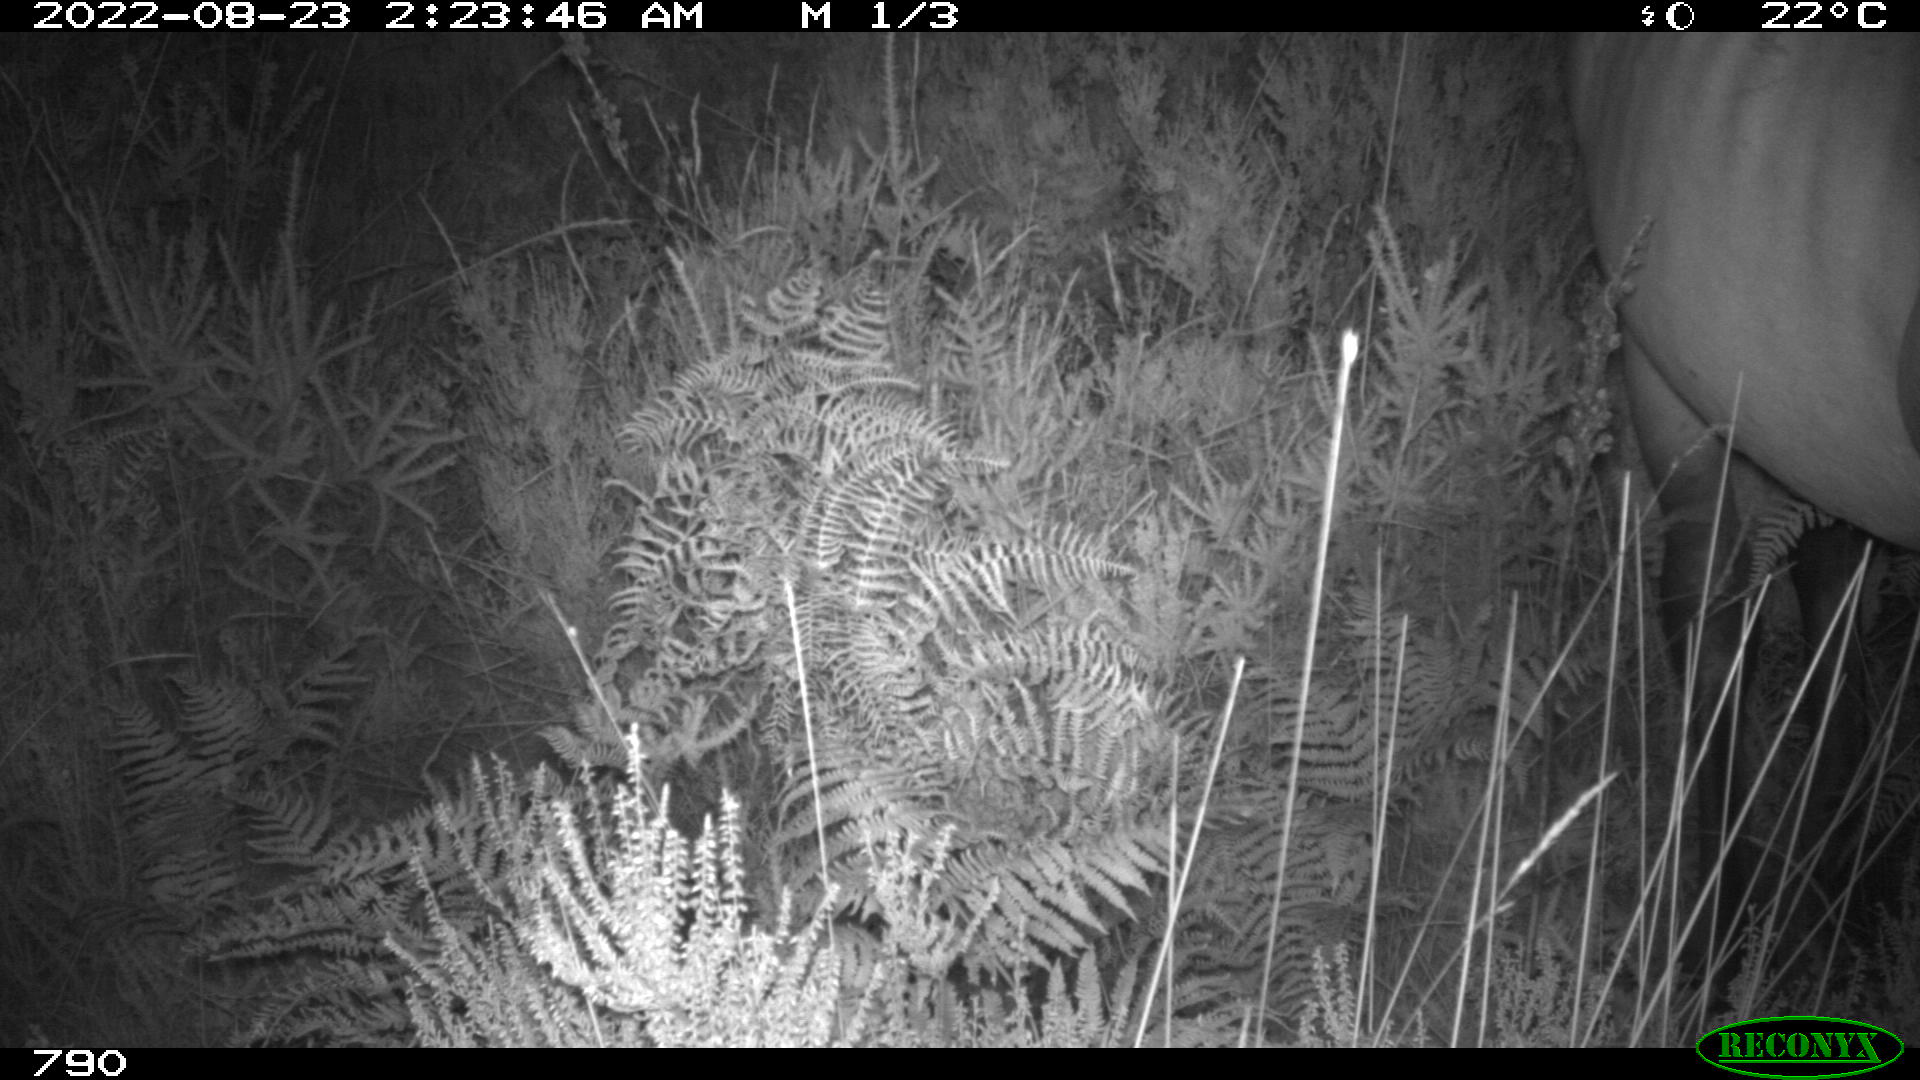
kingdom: Animalia
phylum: Chordata
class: Mammalia
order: Perissodactyla
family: Equidae
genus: Equus
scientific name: Equus caballus
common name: Horse
